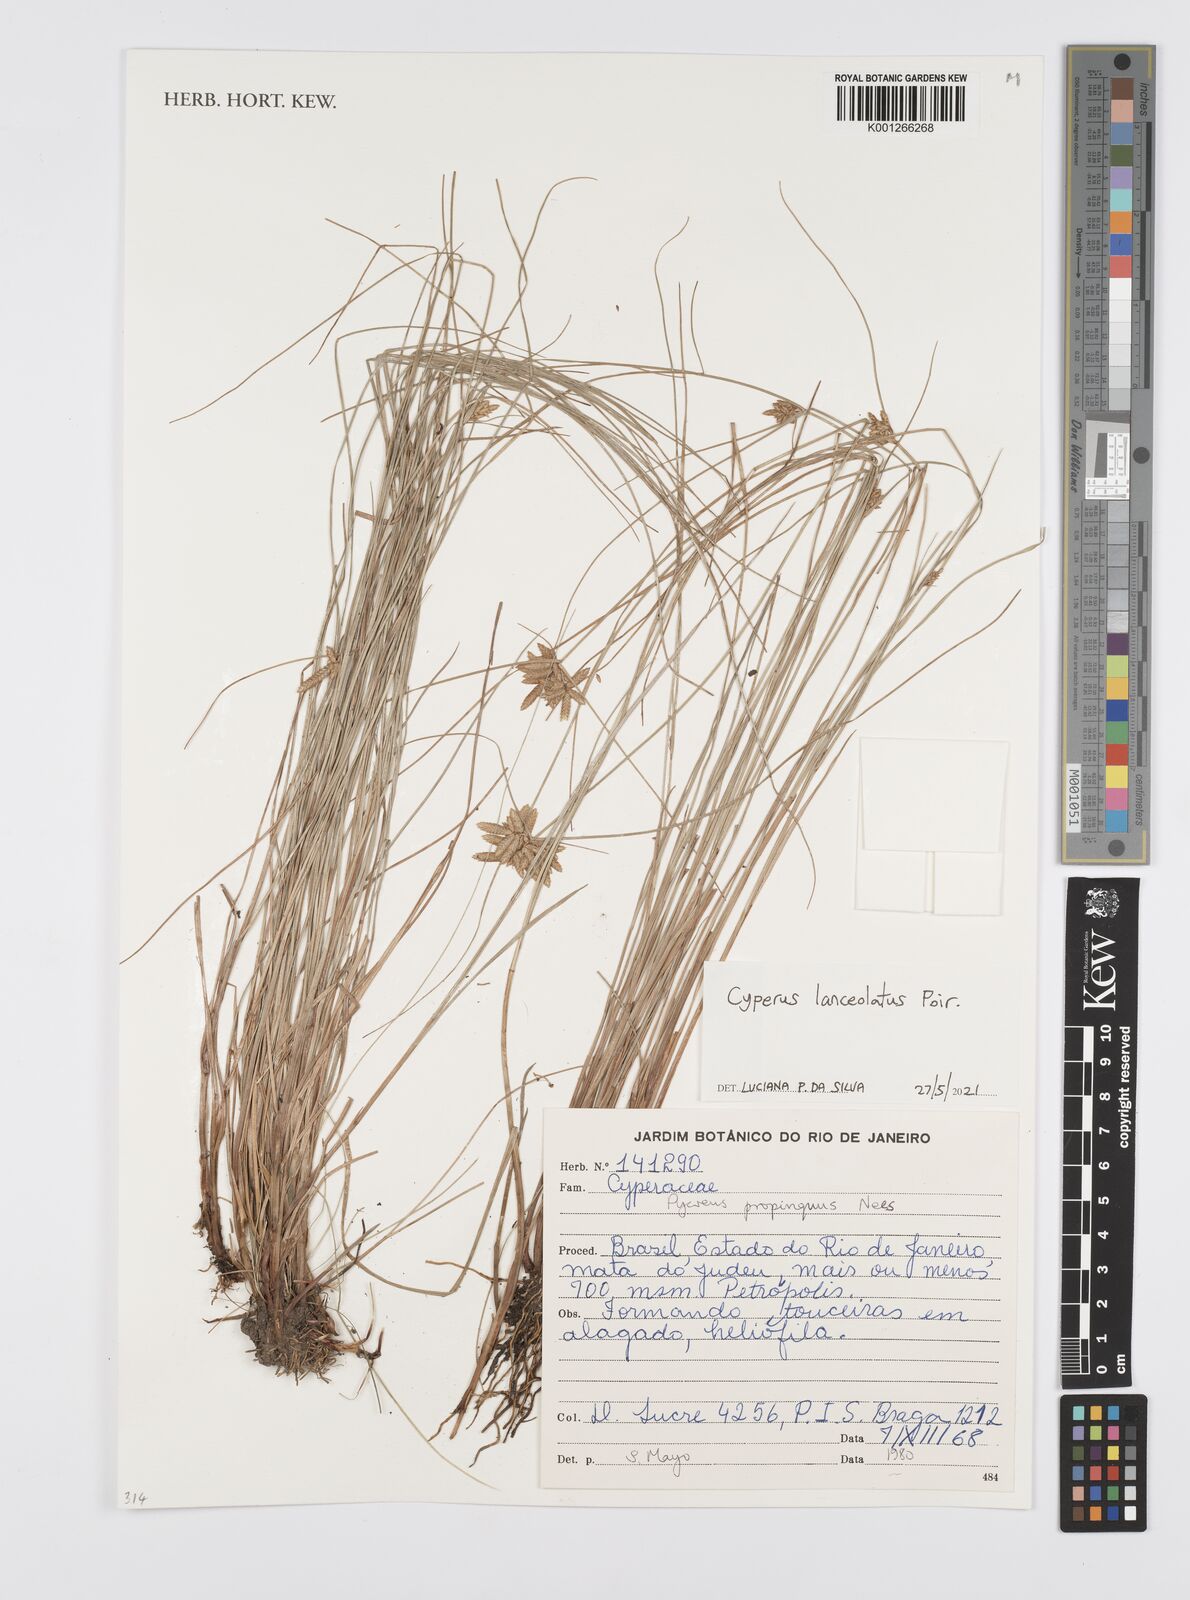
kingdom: Plantae
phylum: Tracheophyta
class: Liliopsida
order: Poales
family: Cyperaceae
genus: Cyperus
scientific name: Cyperus lanceolatus
